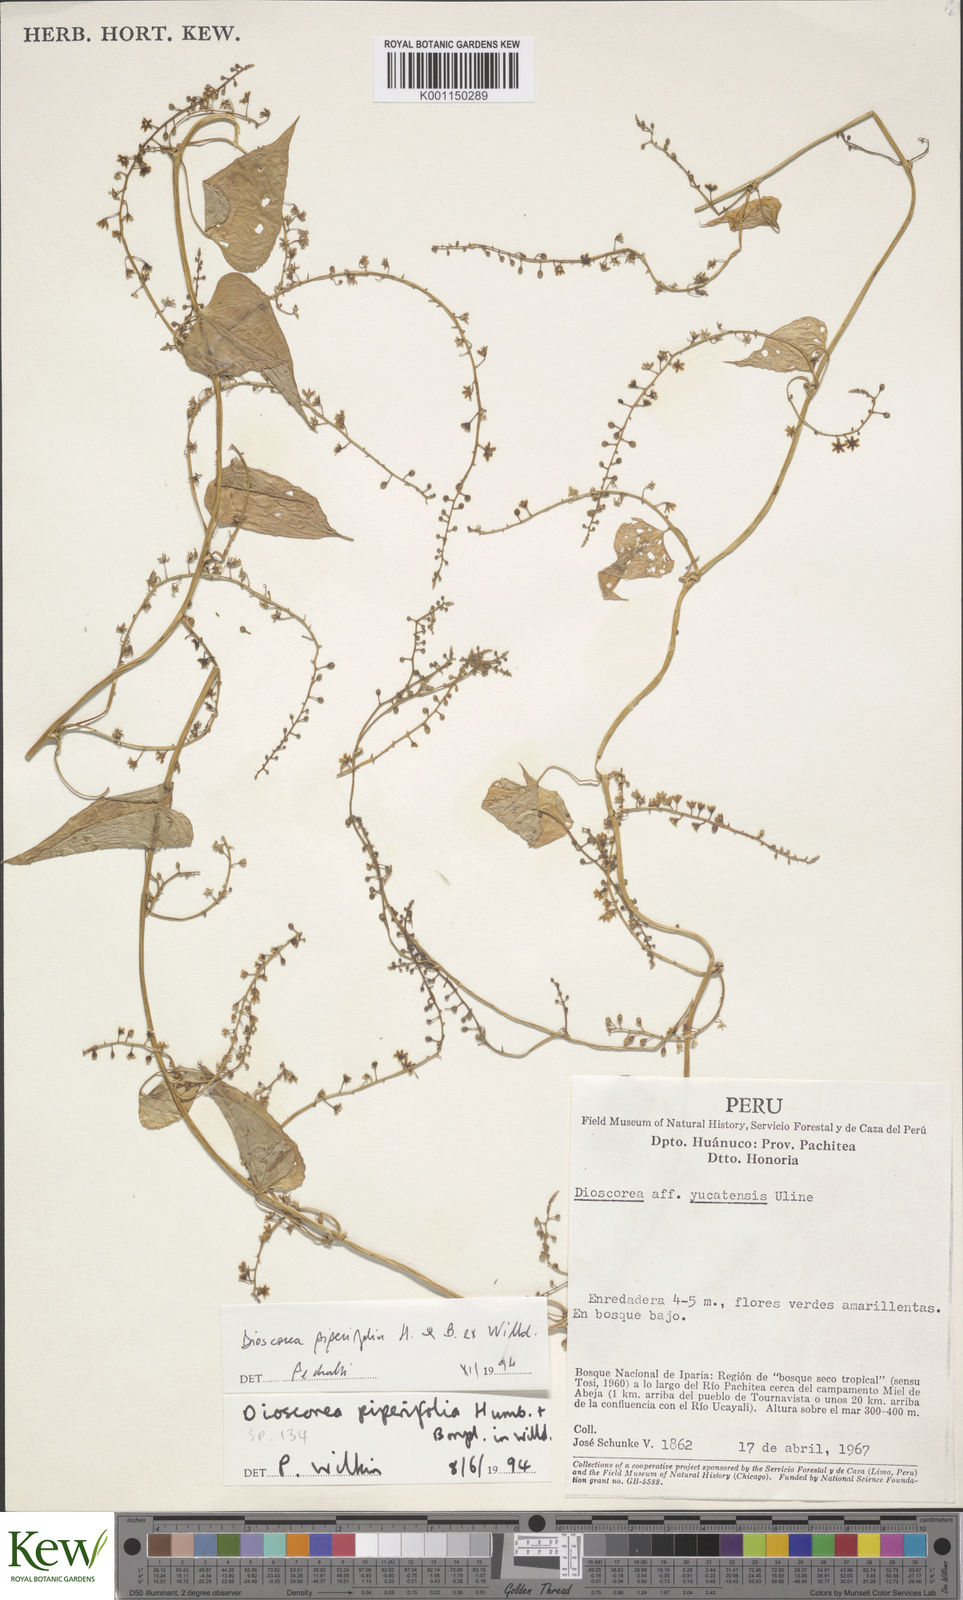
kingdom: Plantae
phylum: Tracheophyta
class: Liliopsida
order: Dioscoreales
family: Dioscoreaceae
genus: Dioscorea
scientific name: Dioscorea piperifolia
